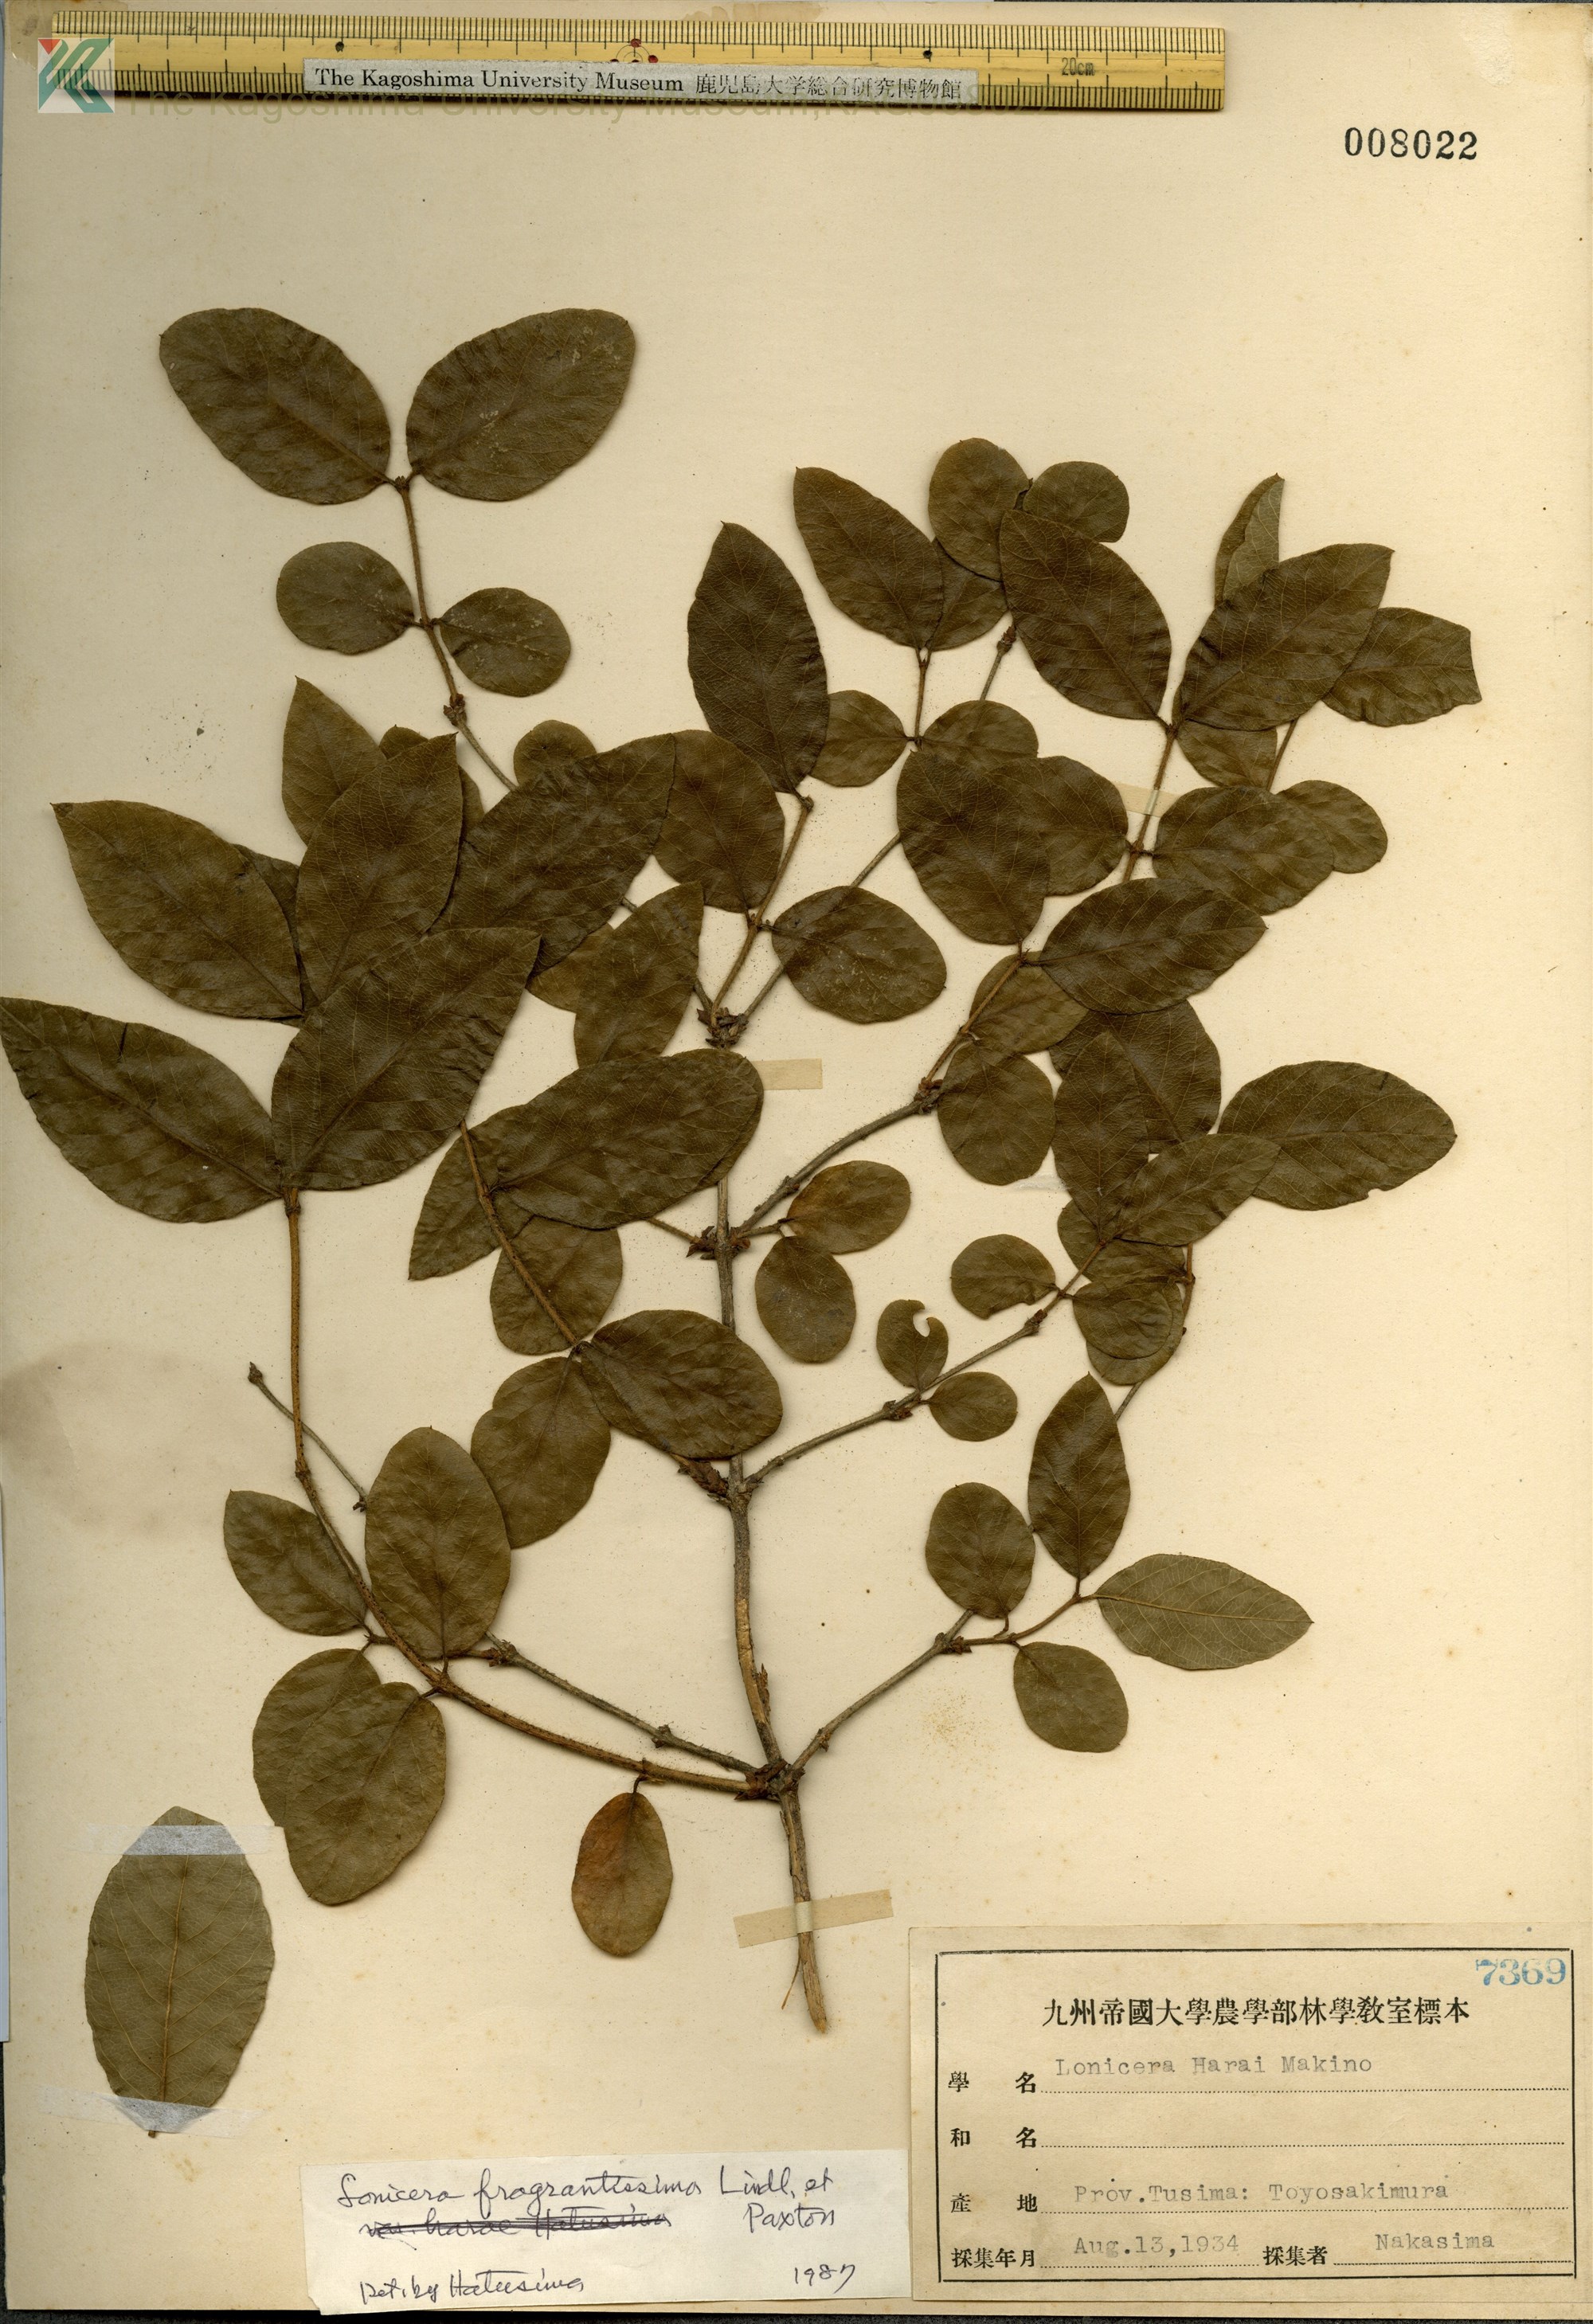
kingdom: Plantae
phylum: Tracheophyta
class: Magnoliopsida
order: Dipsacales
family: Caprifoliaceae
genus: Lonicera
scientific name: Lonicera fragrantissima
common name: Fragrant honeysuckle
